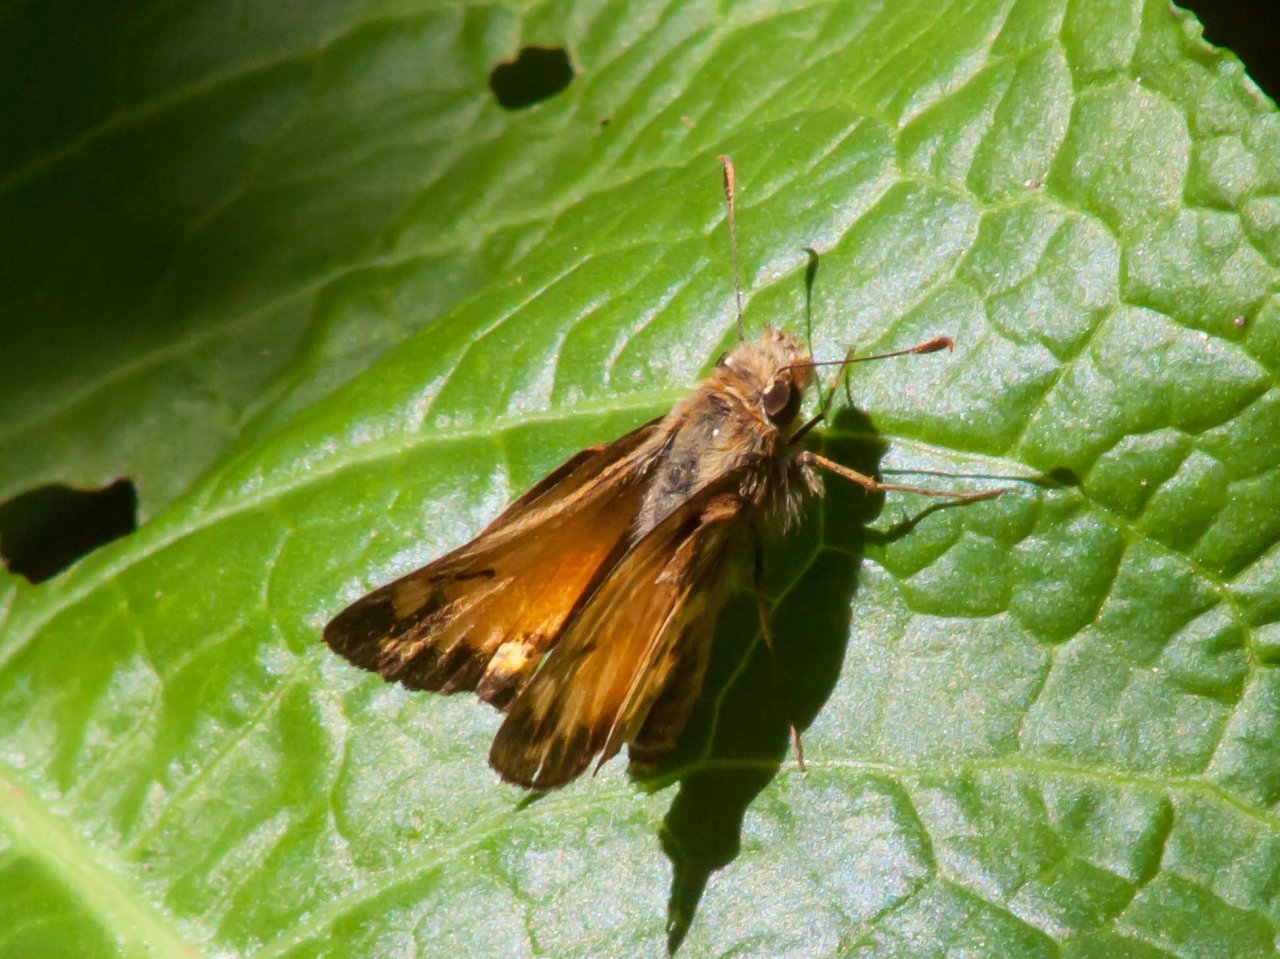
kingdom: Animalia
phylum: Arthropoda
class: Insecta
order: Lepidoptera
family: Hesperiidae
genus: Lon
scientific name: Lon zabulon
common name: Zabulon Skipper
